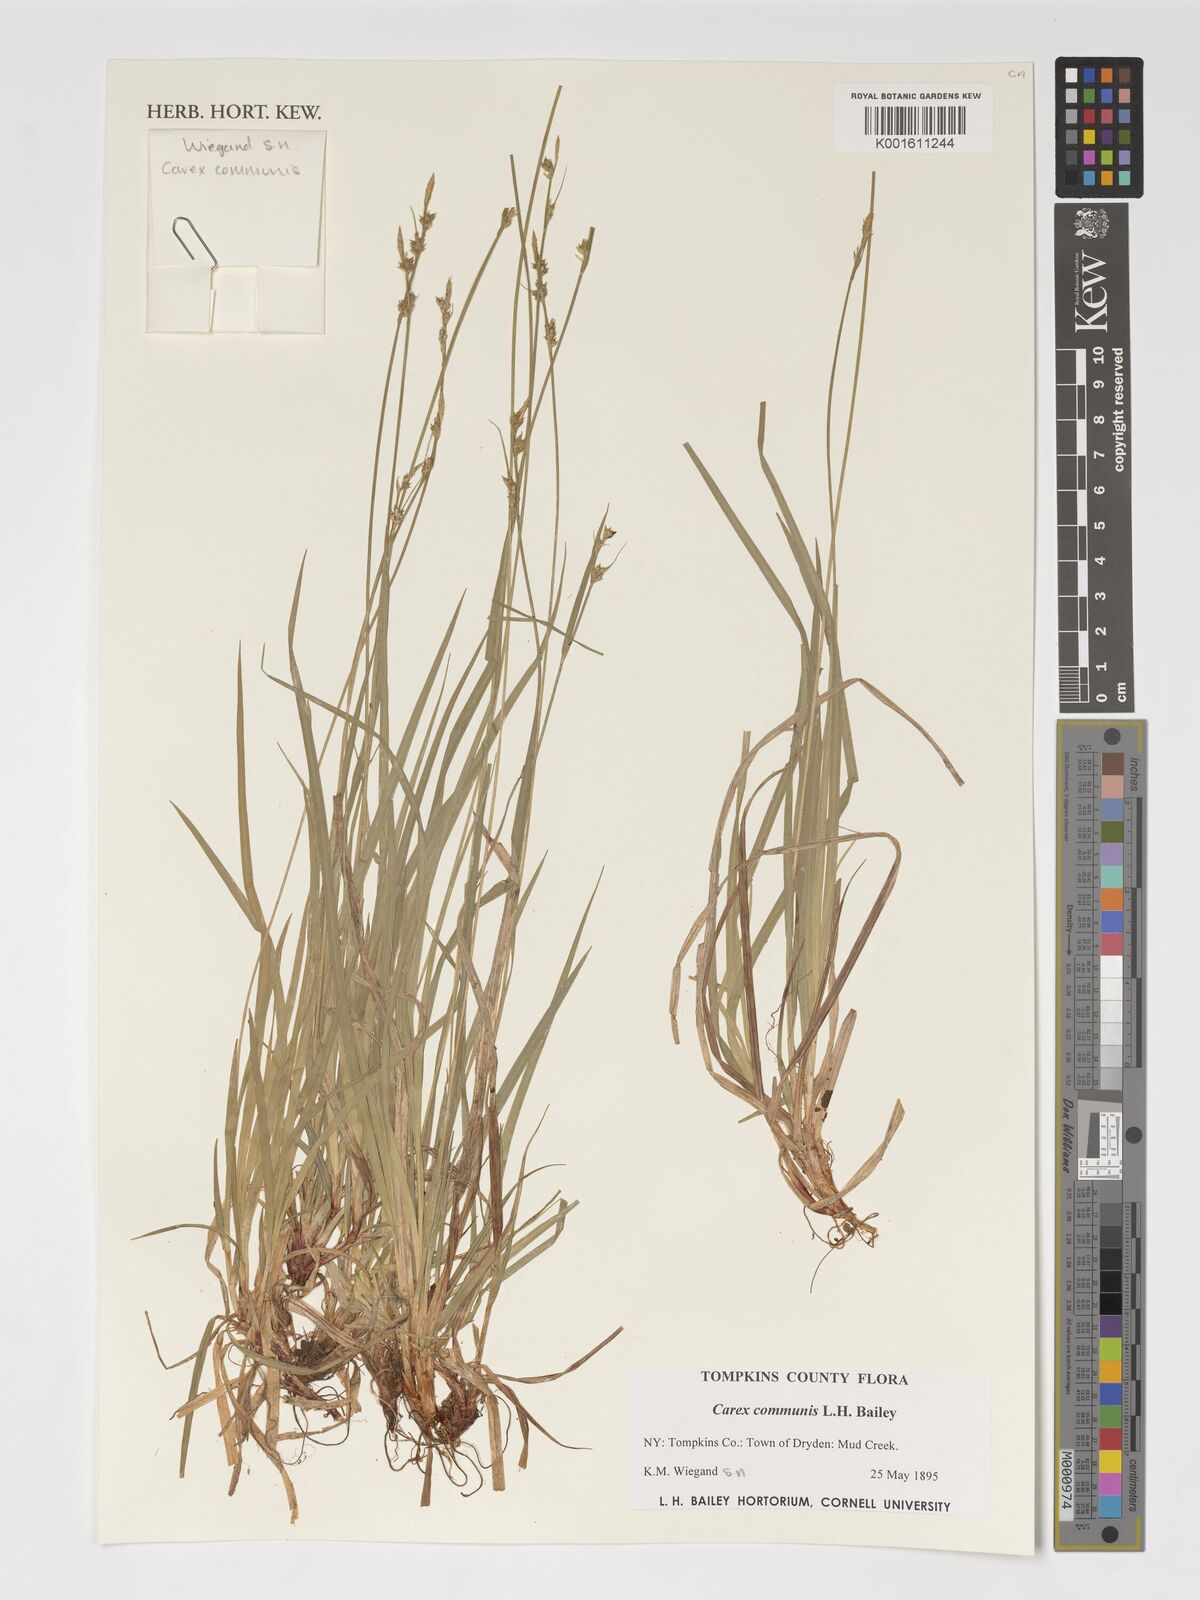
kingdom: Plantae
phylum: Tracheophyta
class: Liliopsida
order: Poales
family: Cyperaceae
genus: Carex
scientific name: Carex communis
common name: Colonial oak sedge
